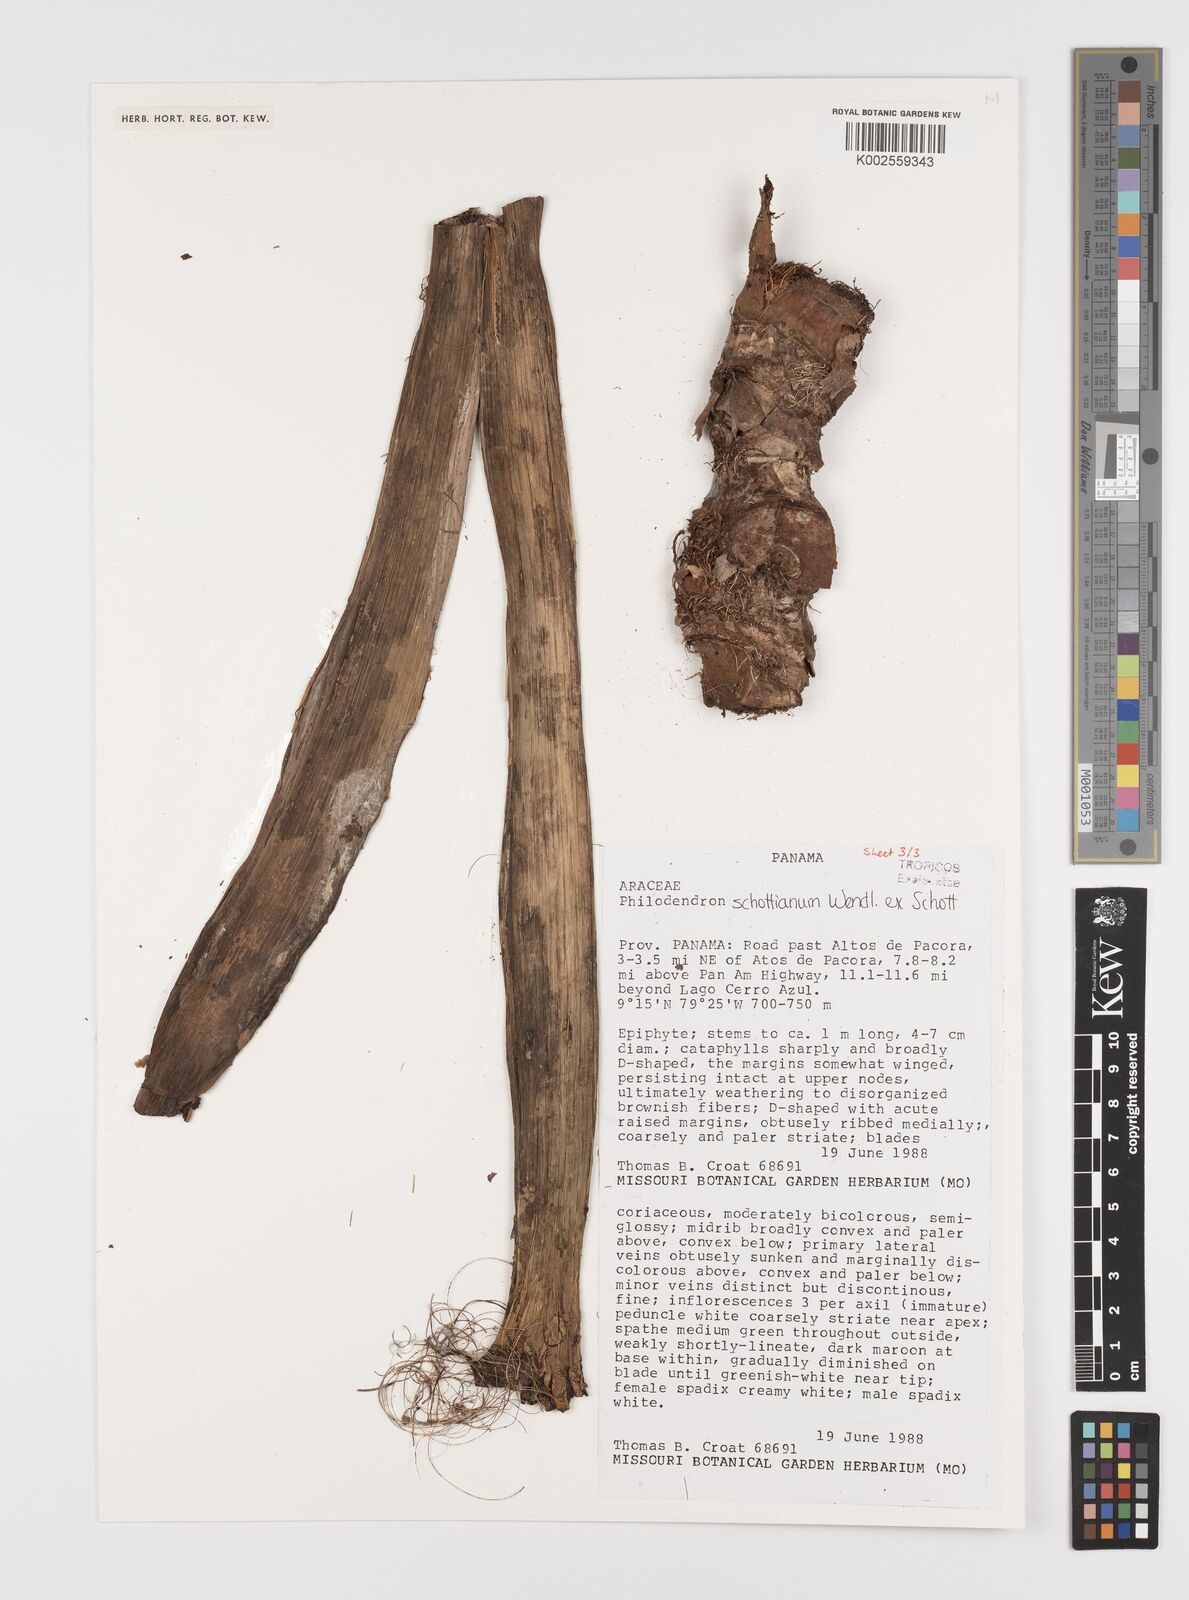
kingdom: Plantae
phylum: Tracheophyta
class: Liliopsida
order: Alismatales
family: Araceae
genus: Philodendron
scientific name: Philodendron schottianum
